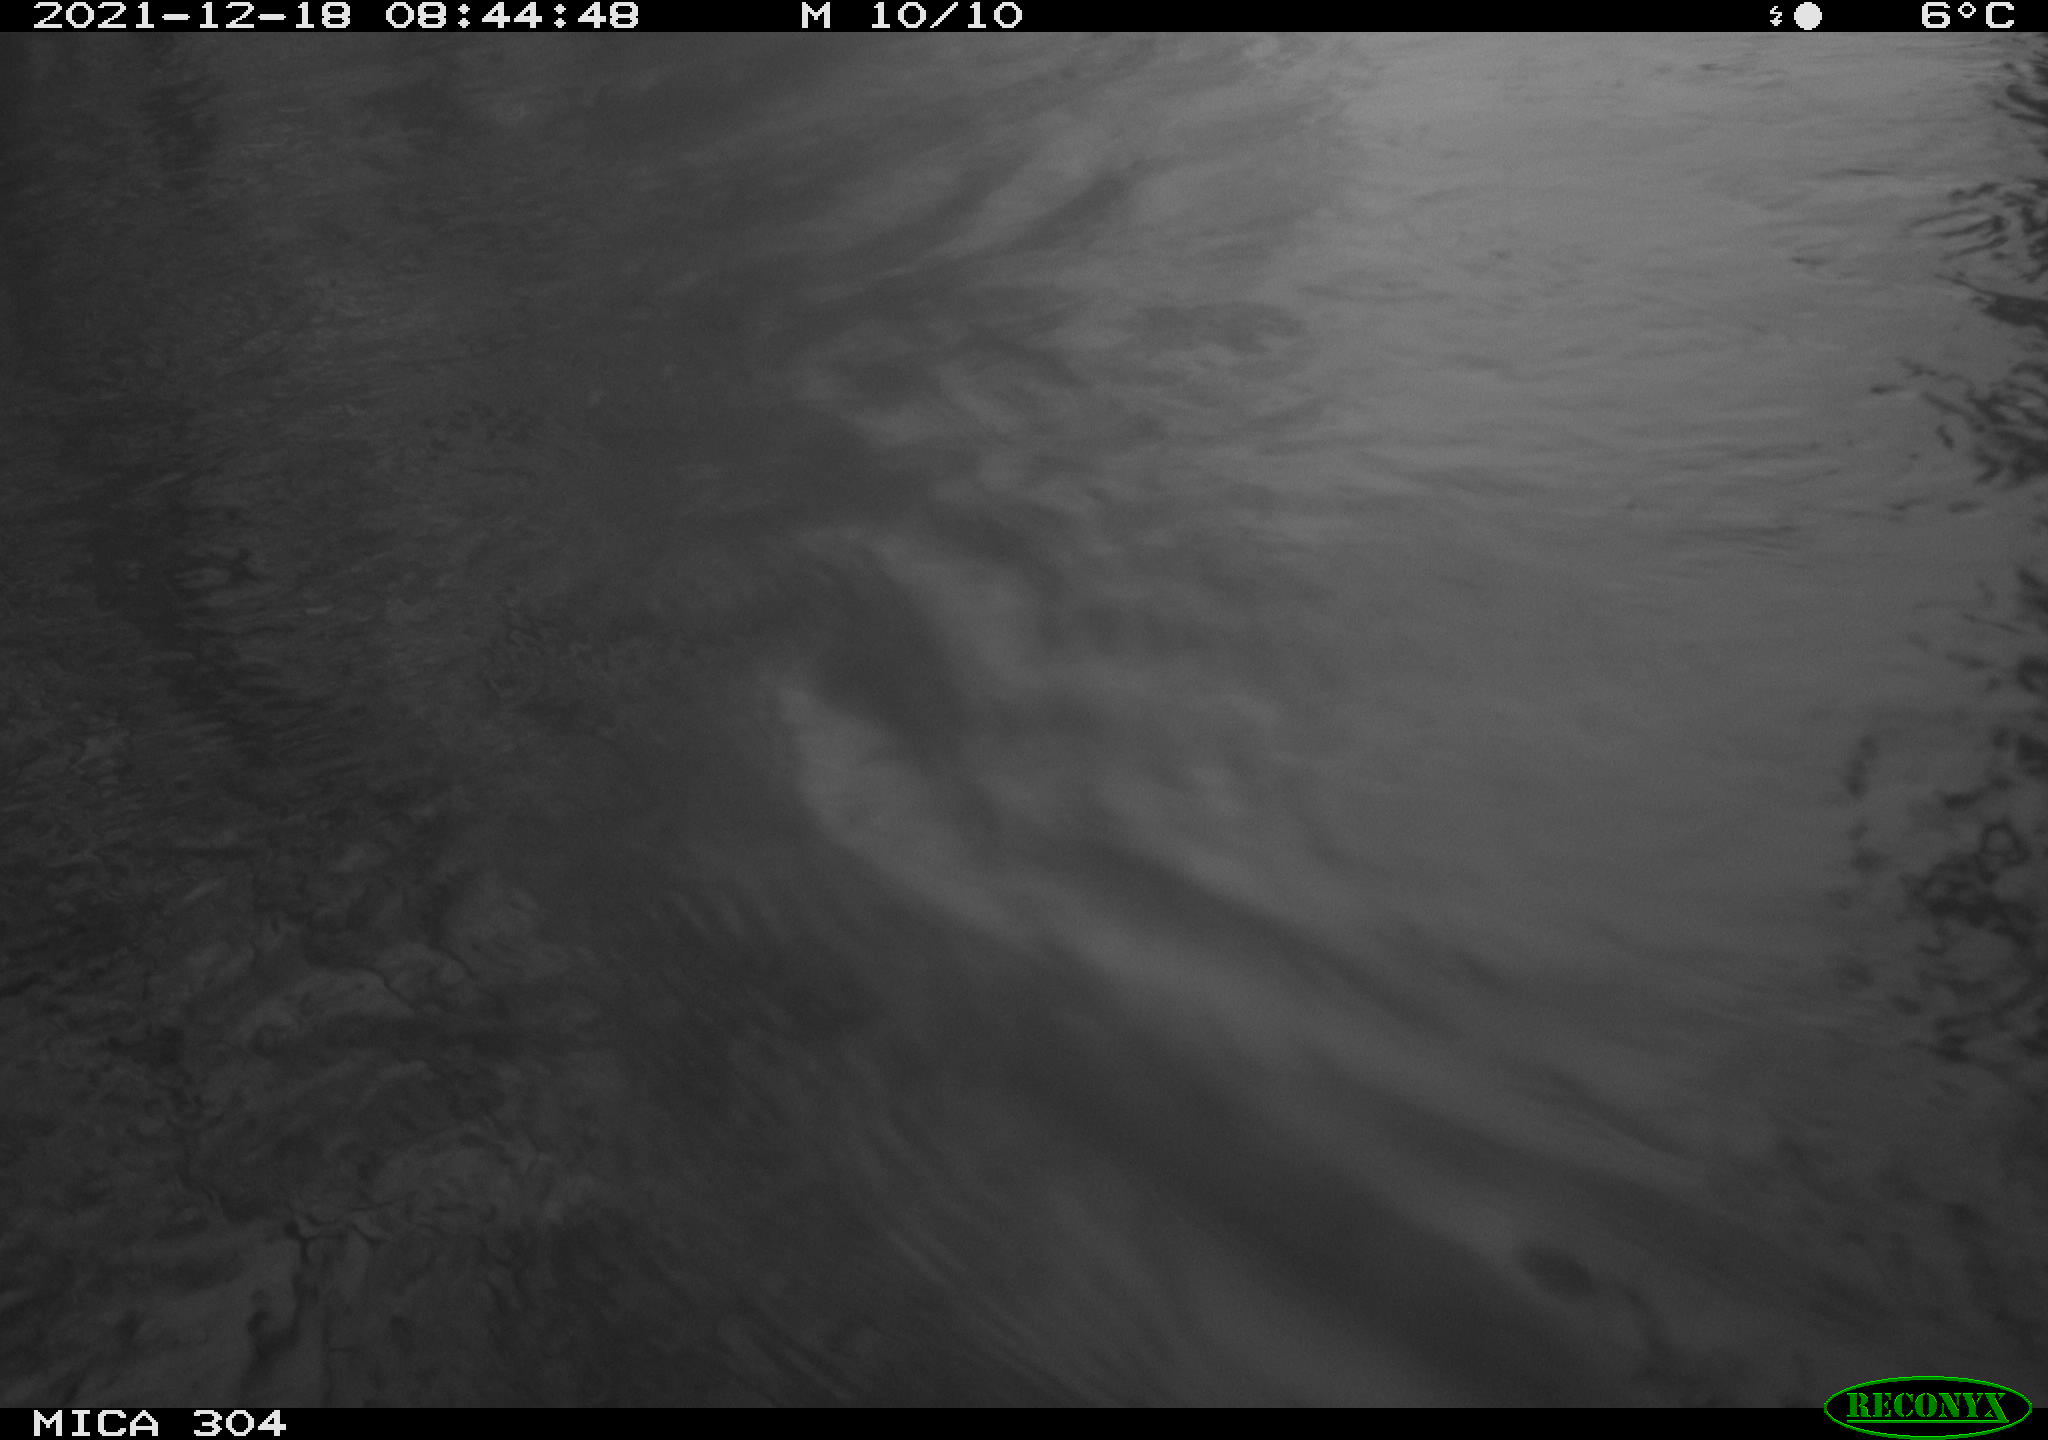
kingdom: Animalia
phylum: Chordata
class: Aves
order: Gruiformes
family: Rallidae
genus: Fulica
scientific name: Fulica atra
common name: Eurasian coot
